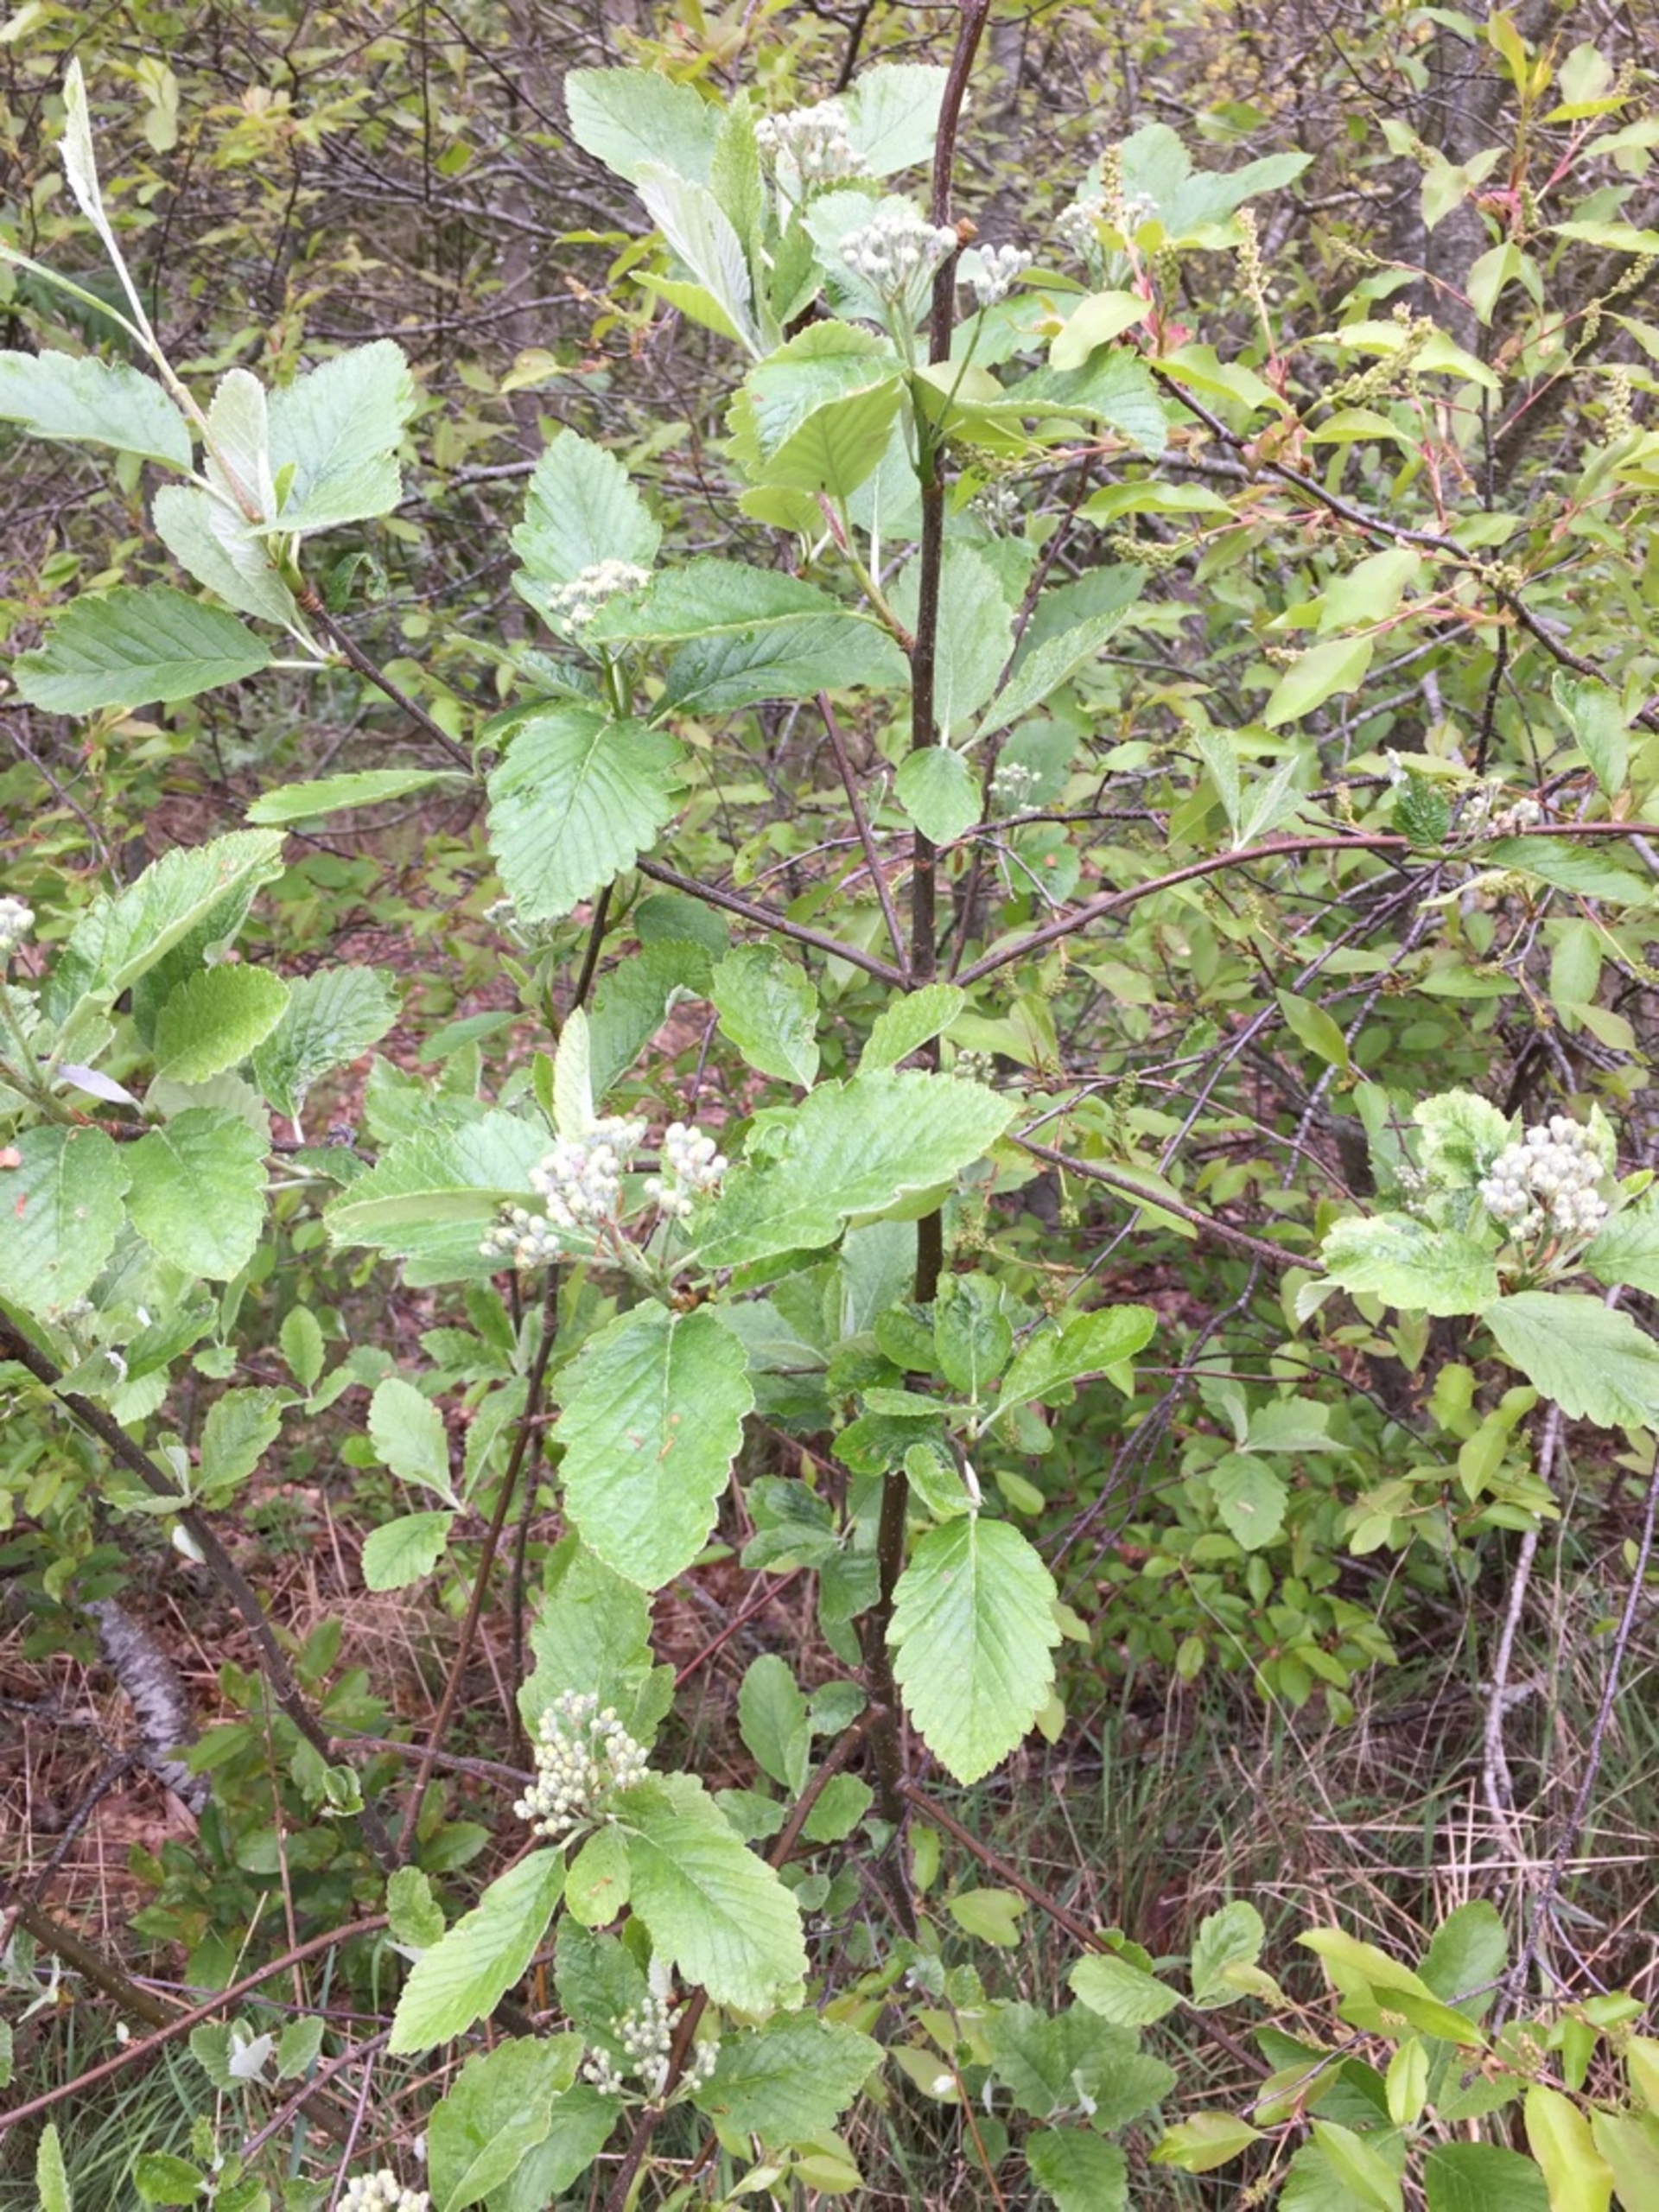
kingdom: Plantae
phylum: Tracheophyta
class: Magnoliopsida
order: Rosales
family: Rosaceae
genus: Hedlundia
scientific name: Hedlundia mougeotii
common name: Pyrenæisk røn
